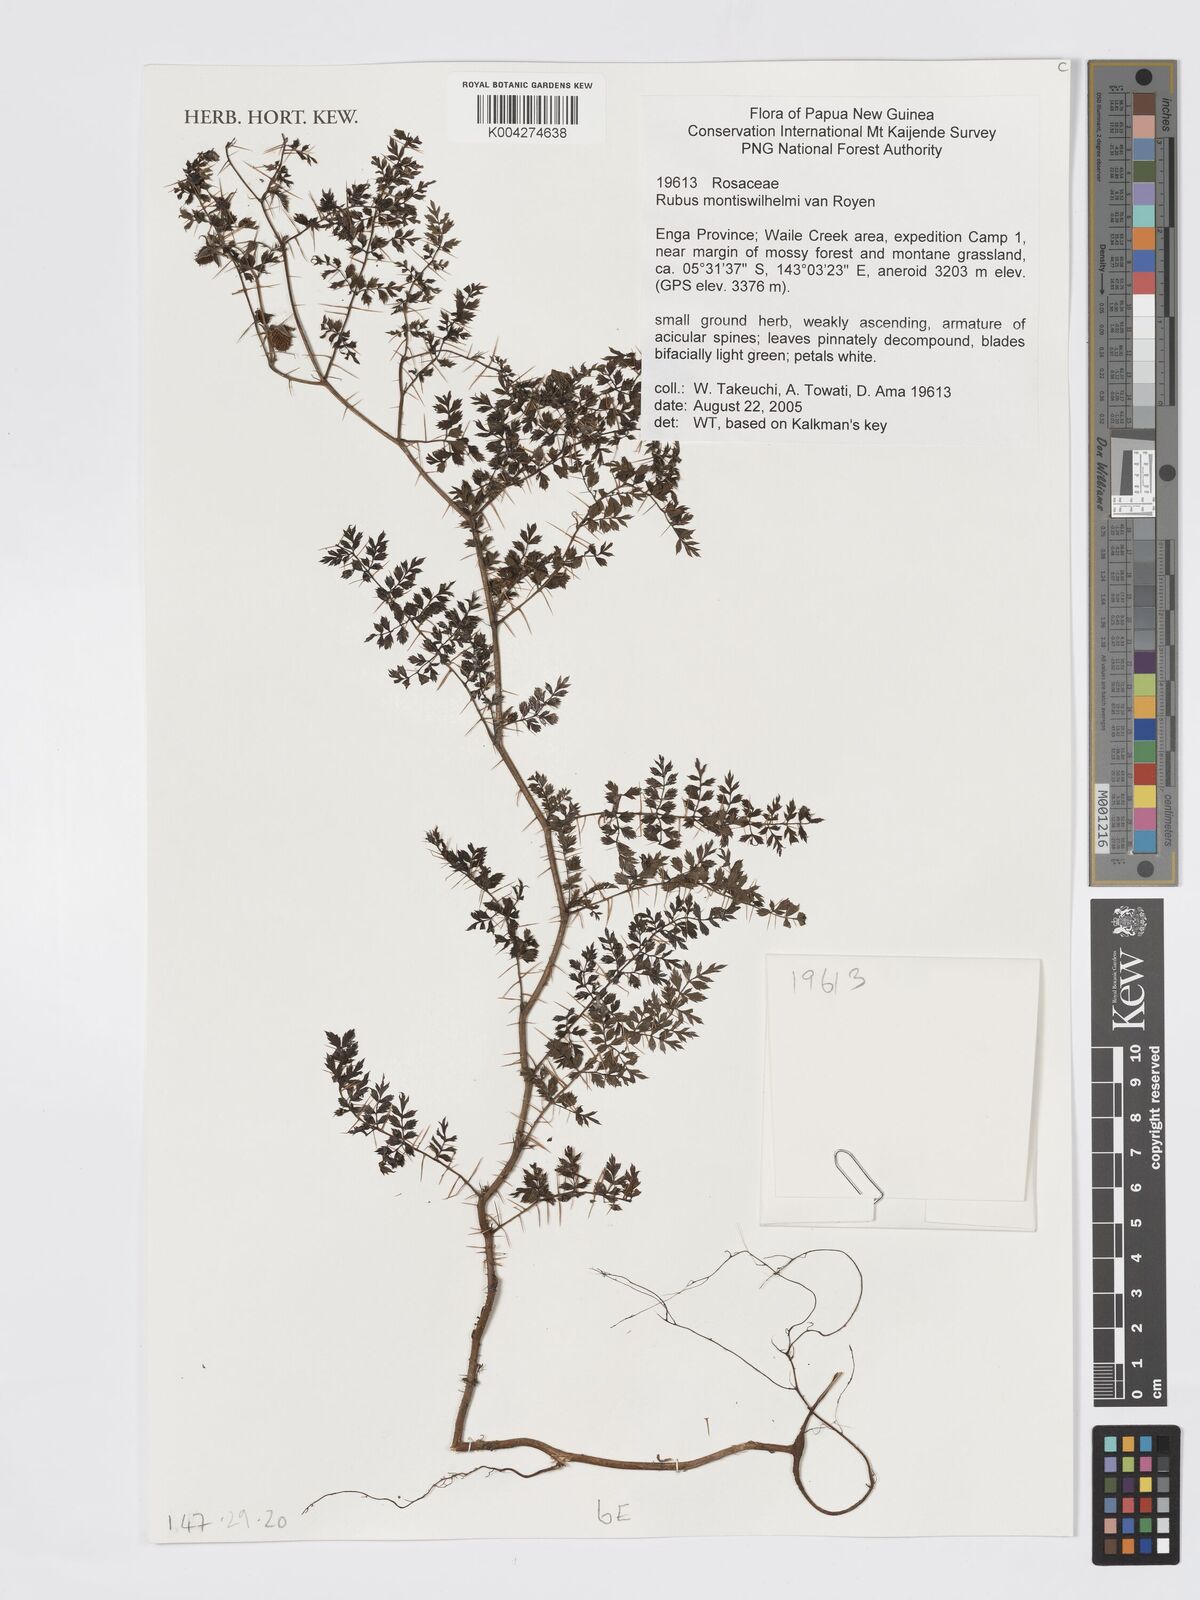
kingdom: Plantae
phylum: Tracheophyta
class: Magnoliopsida
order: Rosales
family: Rosaceae
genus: Rubus
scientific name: Rubus montis-wilhelmii
